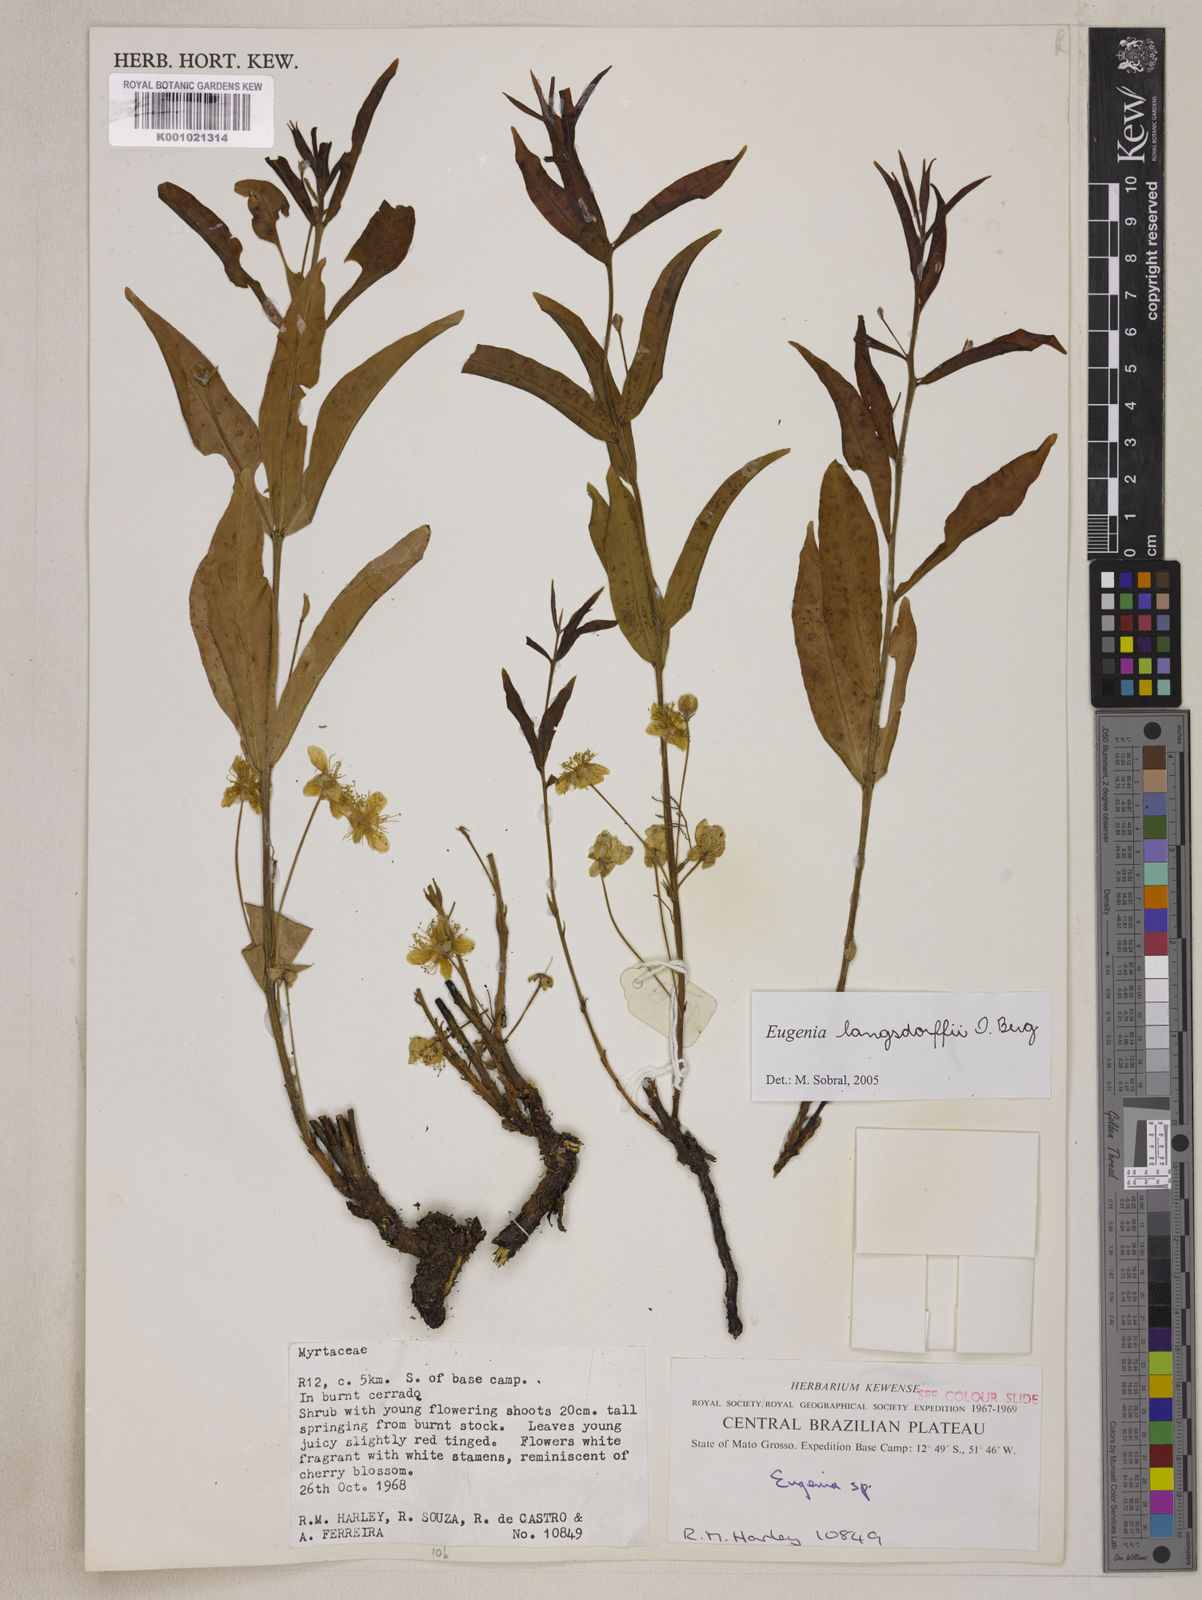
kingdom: Plantae
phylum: Tracheophyta
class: Magnoliopsida
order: Myrtales
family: Myrtaceae
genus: Eugenia
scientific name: Eugenia langsdorffii
